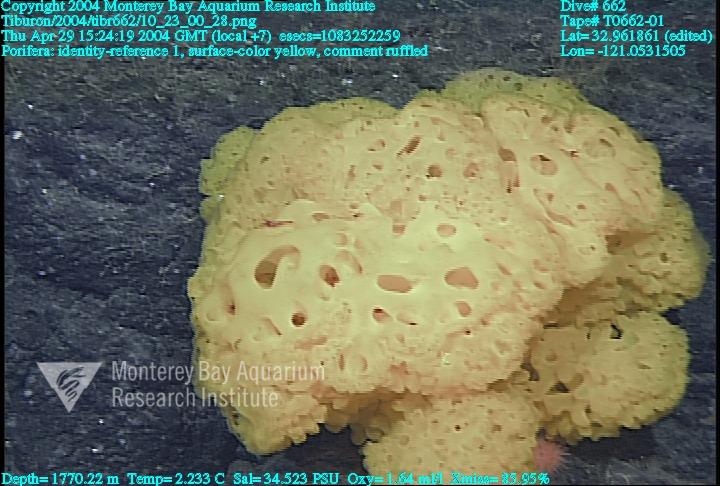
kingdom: Animalia
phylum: Porifera
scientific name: Porifera
